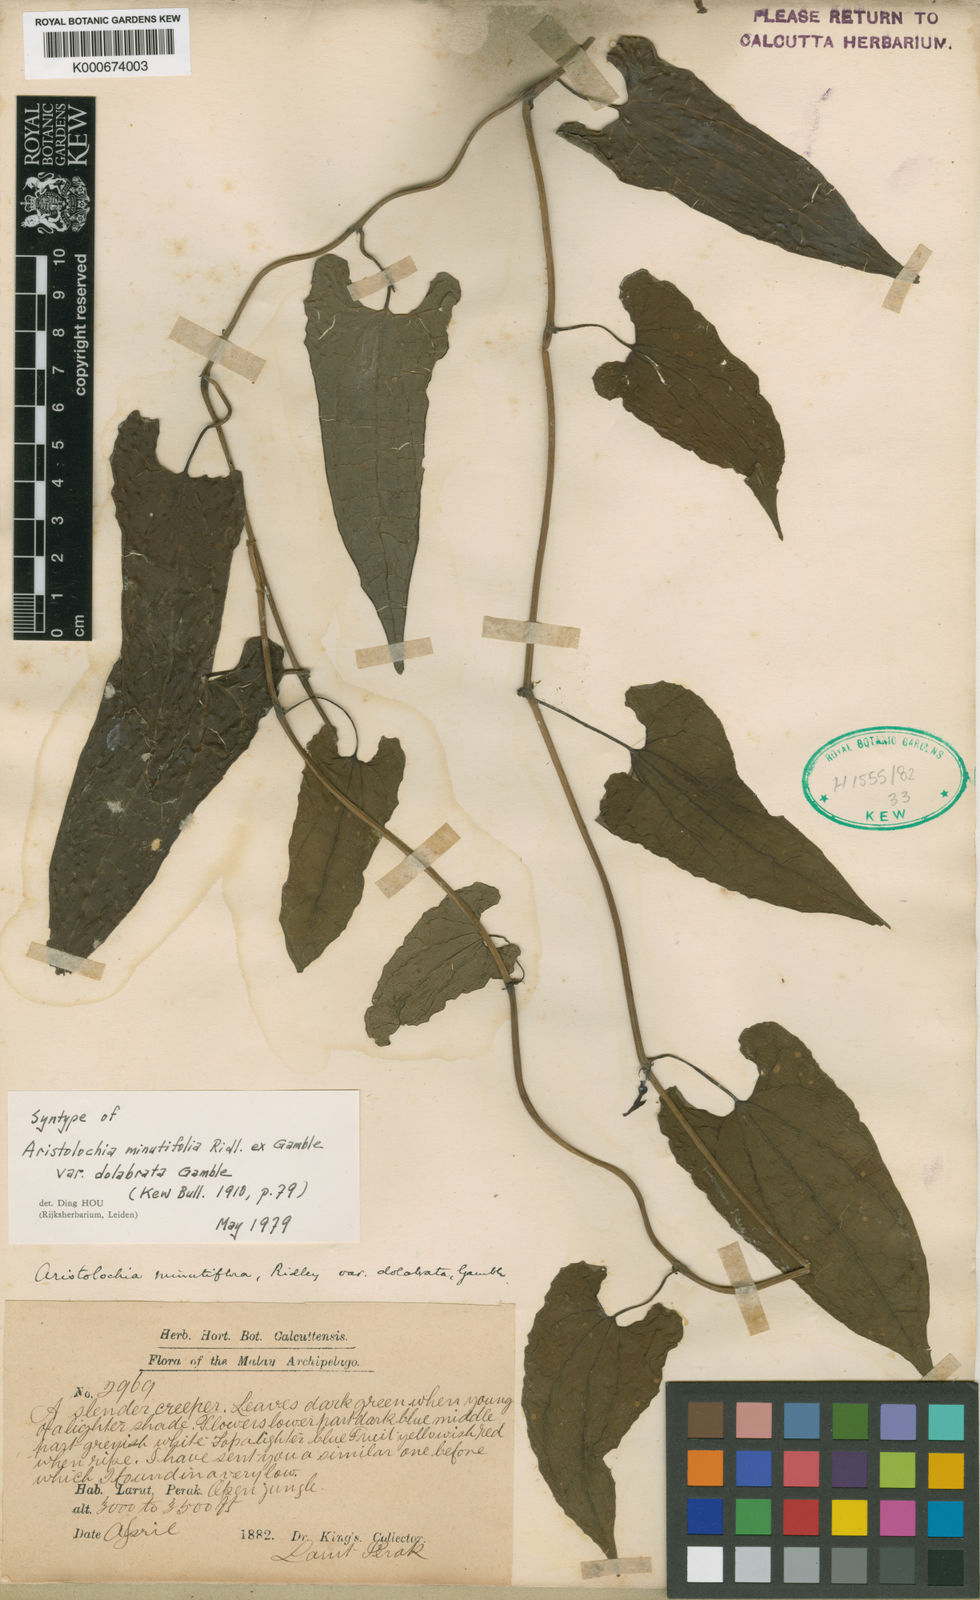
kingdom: Plantae
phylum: Tracheophyta
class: Magnoliopsida
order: Piperales
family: Aristolochiaceae
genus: Aristolochia
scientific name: Aristolochia minutiflora
